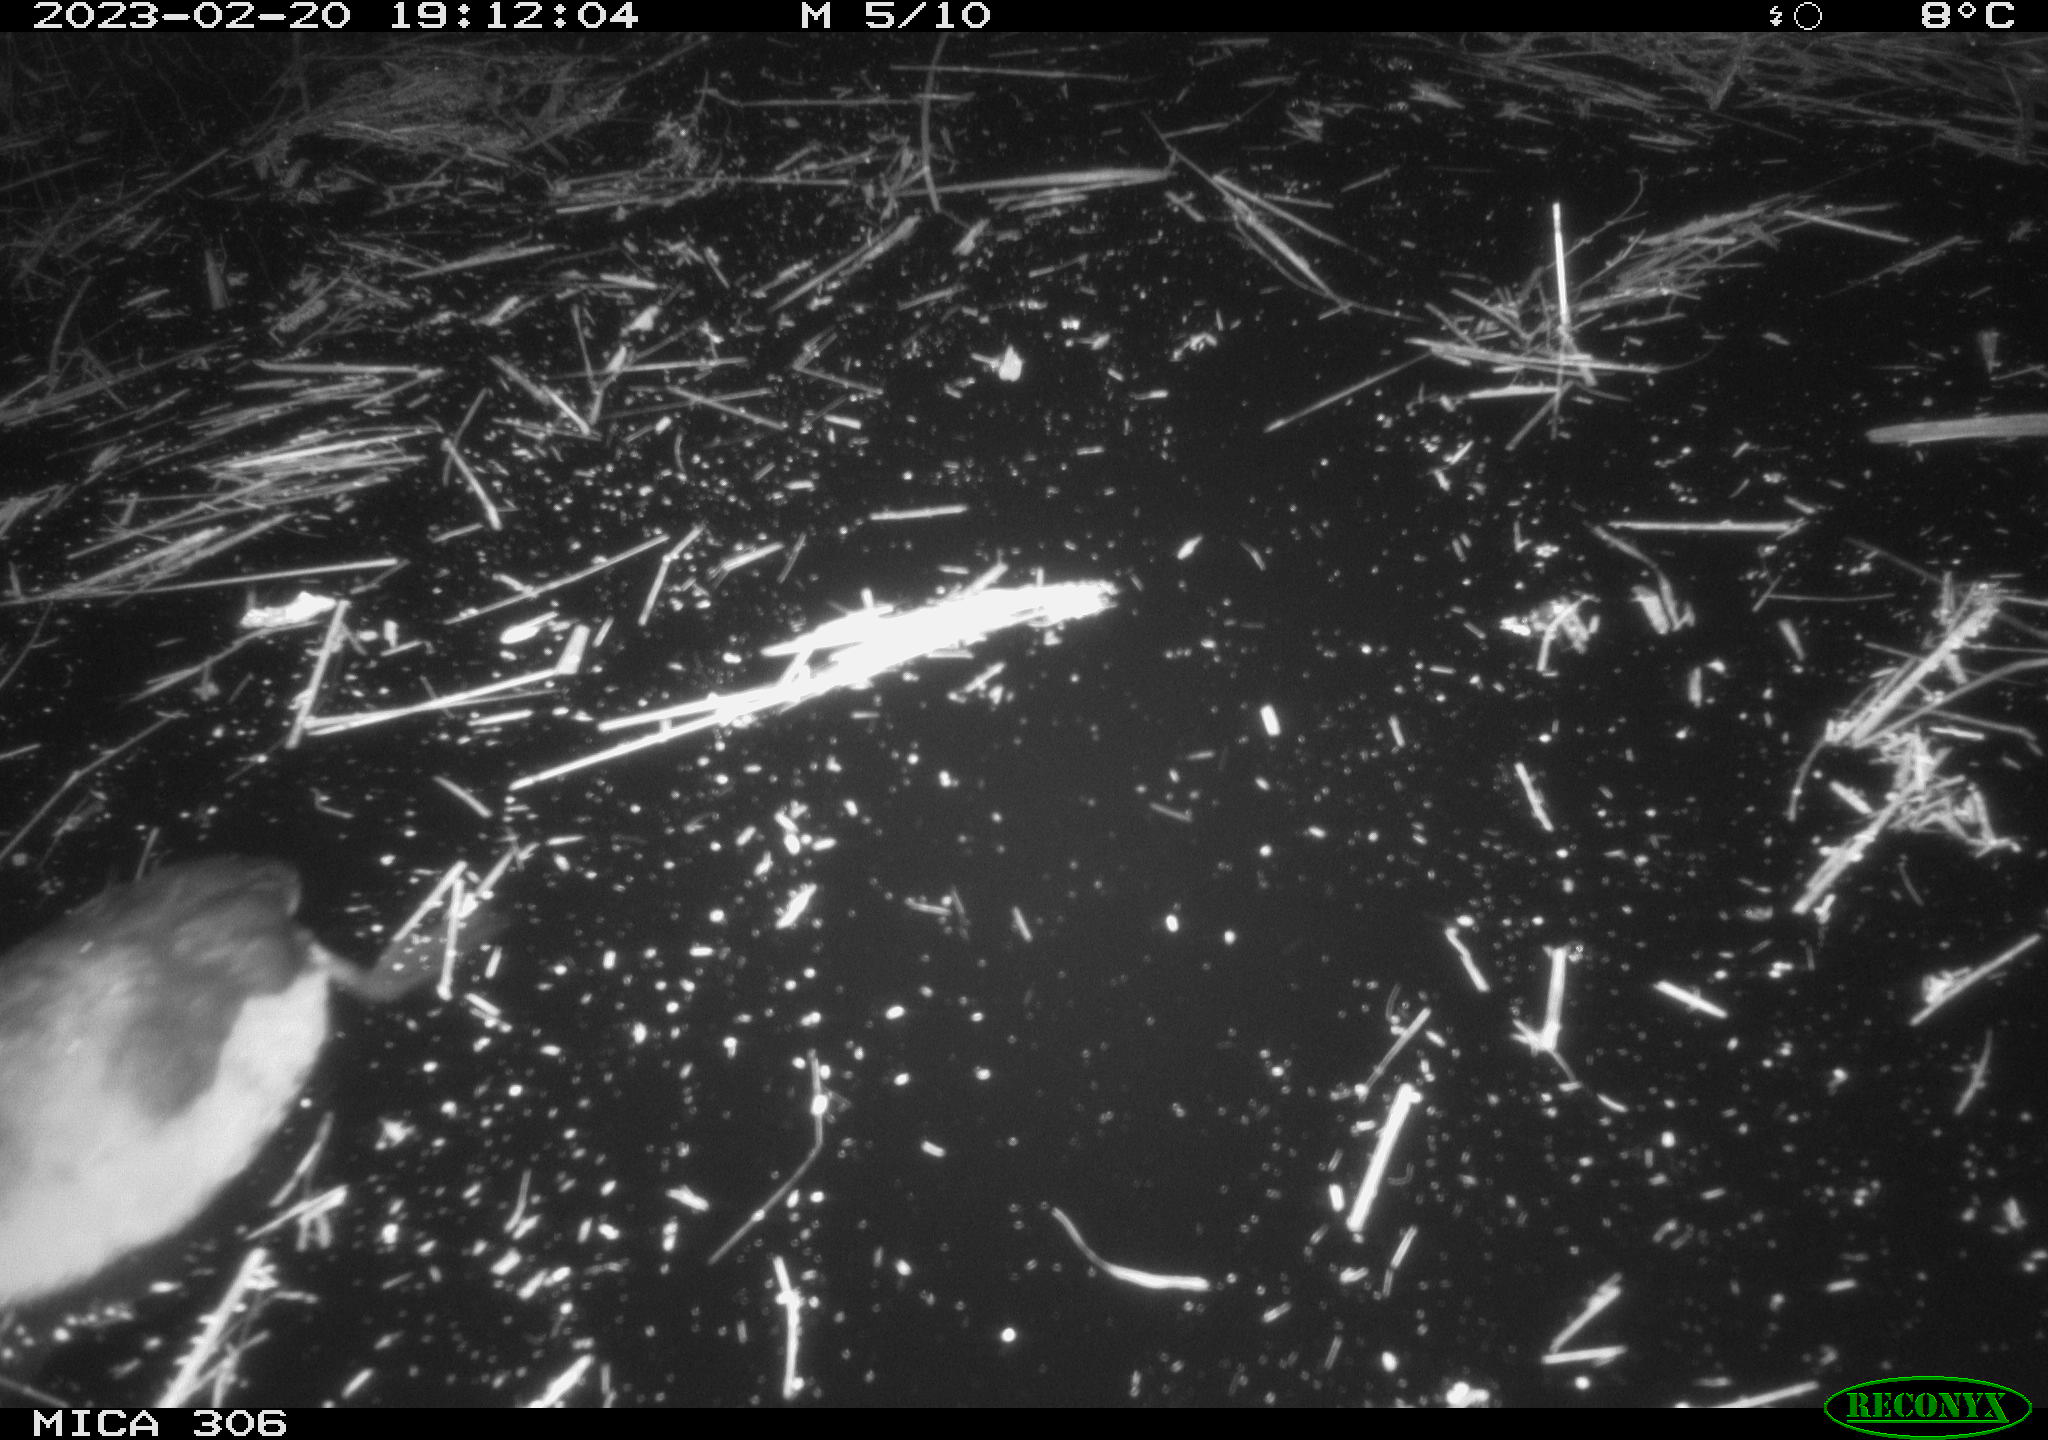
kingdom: Animalia
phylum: Chordata
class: Aves
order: Gruiformes
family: Rallidae
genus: Fulica
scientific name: Fulica atra
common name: Eurasian coot
